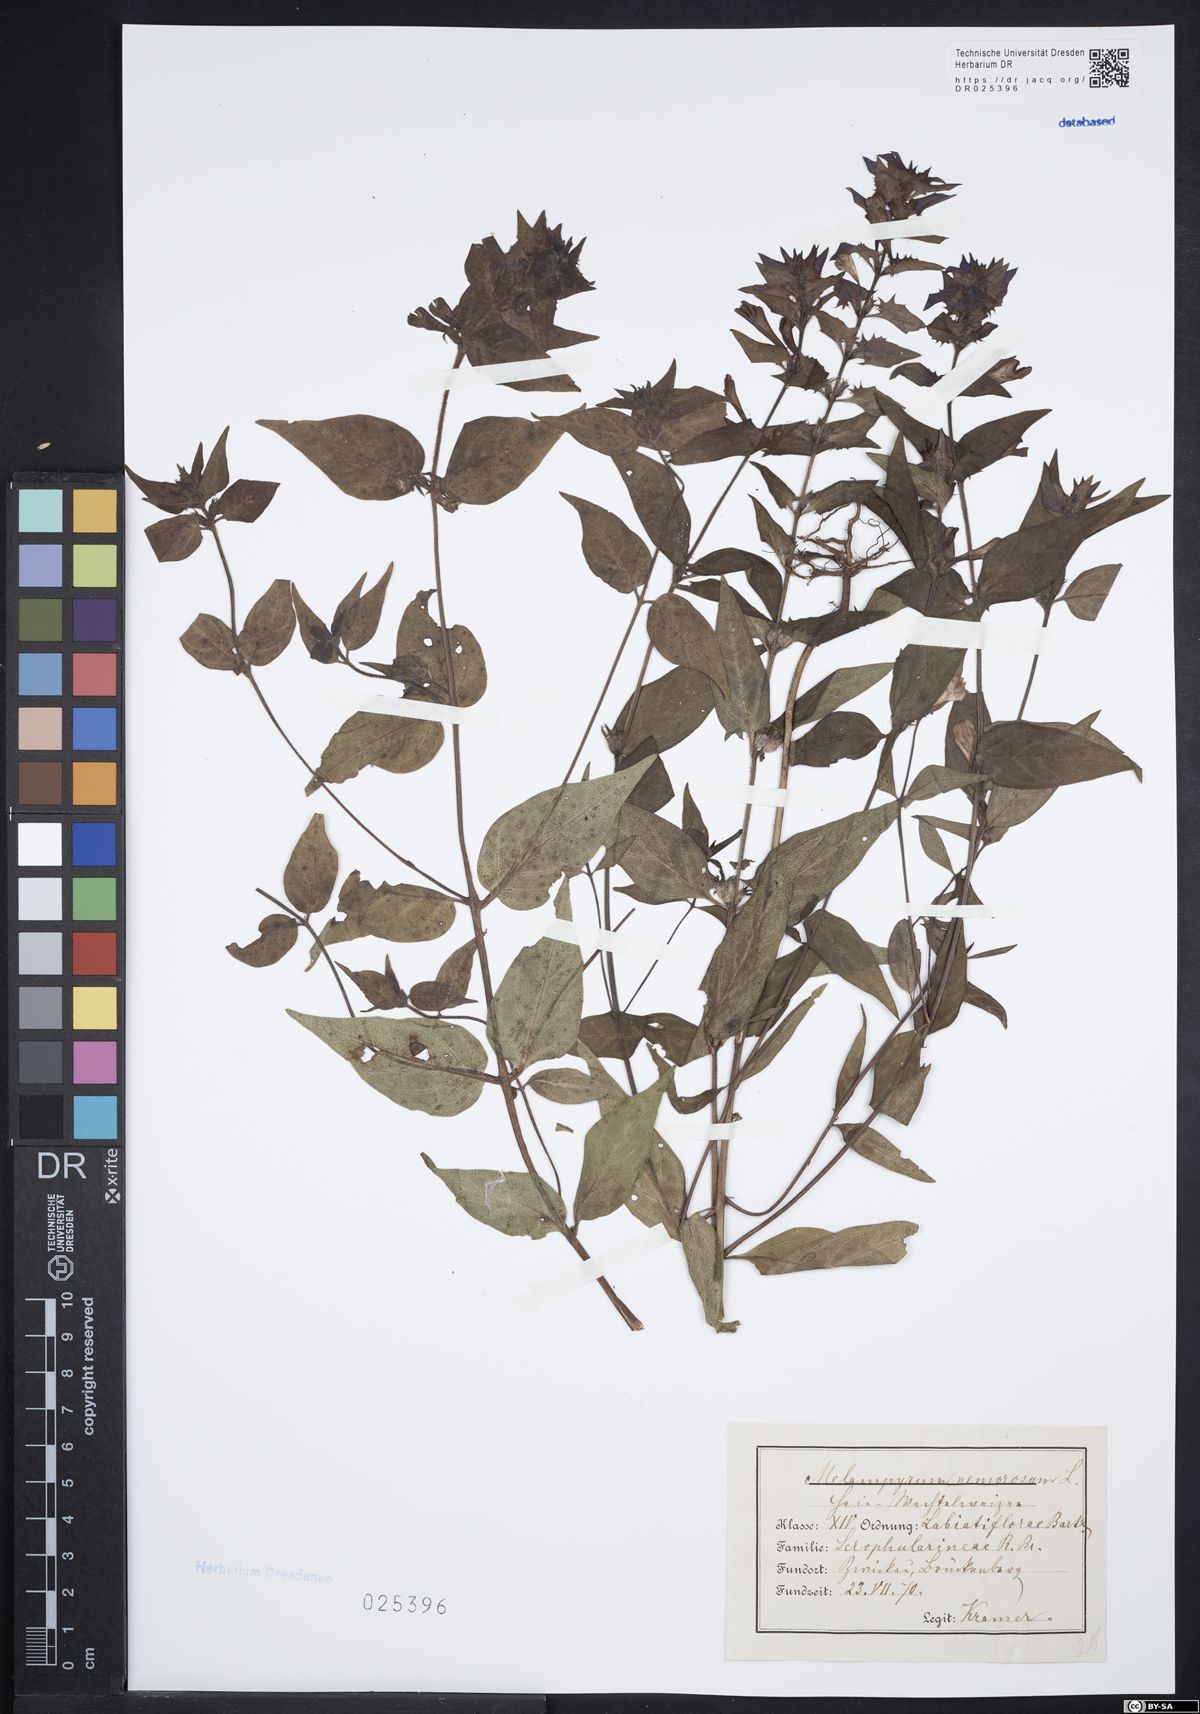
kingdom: Plantae
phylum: Tracheophyta
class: Magnoliopsida
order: Lamiales
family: Orobanchaceae
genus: Melampyrum
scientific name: Melampyrum nemorosum
